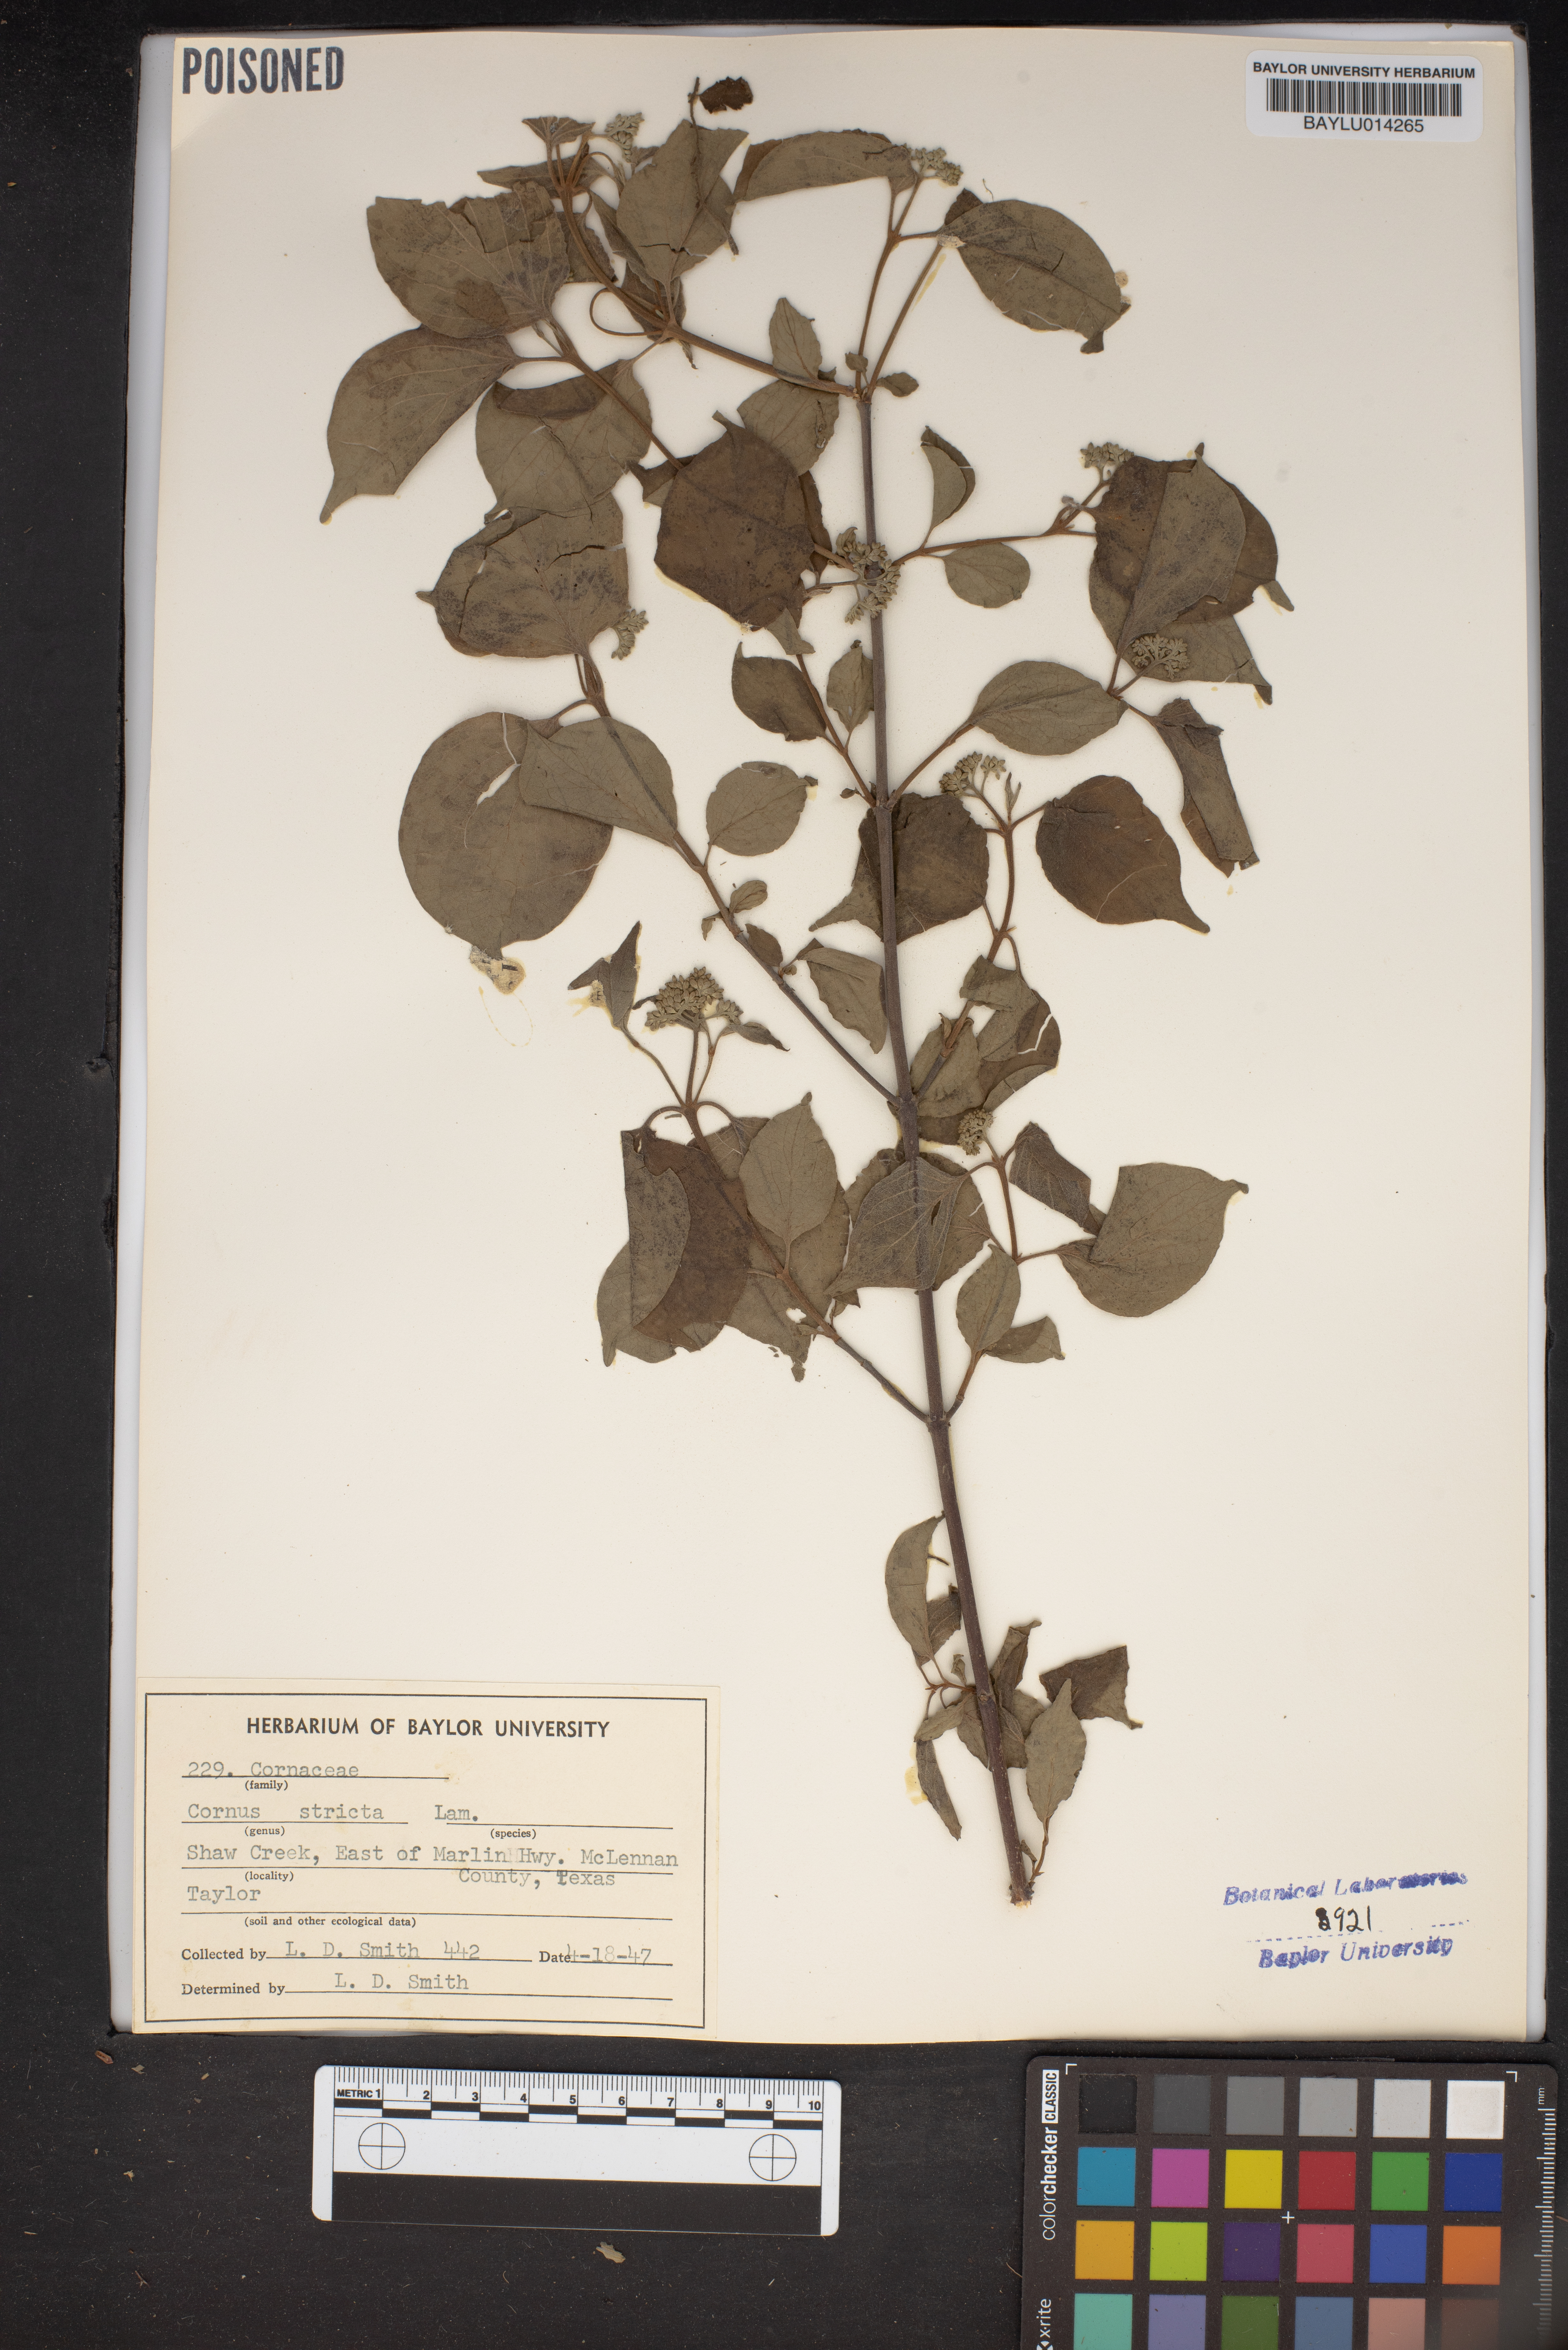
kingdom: Plantae
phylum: Tracheophyta
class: Magnoliopsida
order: Cornales
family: Cornaceae
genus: Cornus
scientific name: Cornus foemina
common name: Swamp dogwood
